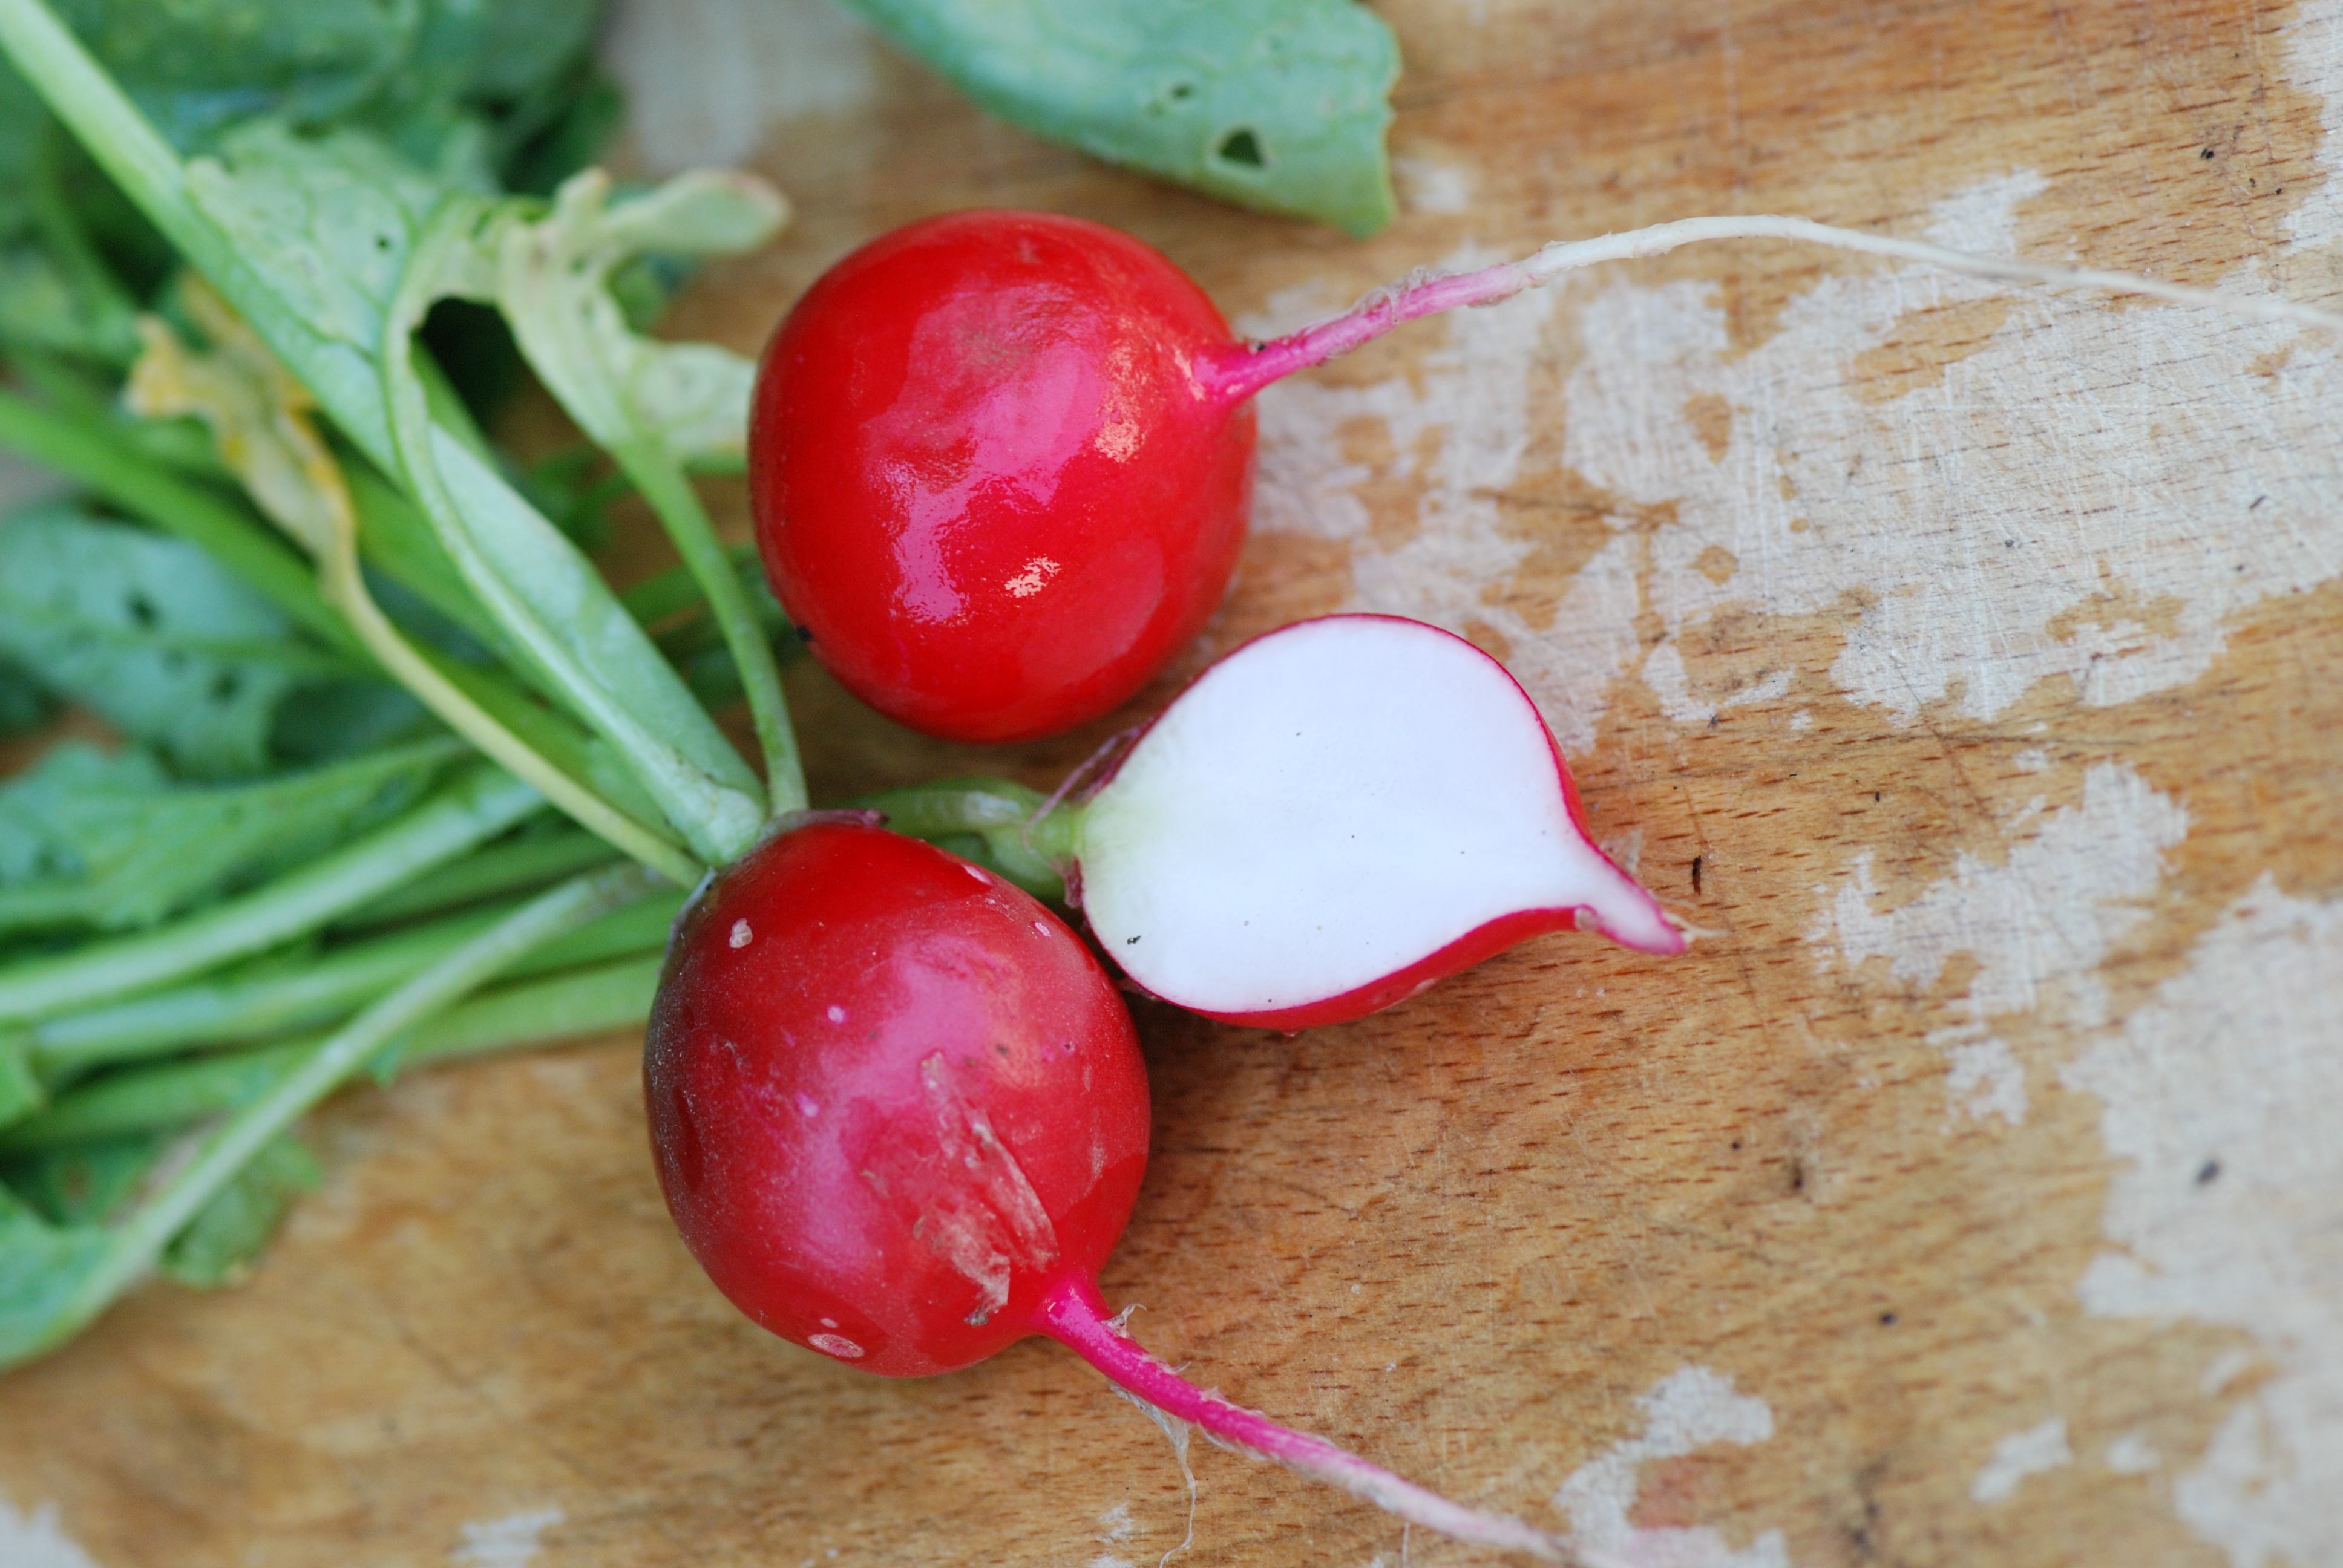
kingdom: Plantae
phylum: Tracheophyta
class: Magnoliopsida
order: Brassicales
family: Brassicaceae
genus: Raphanus
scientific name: Raphanus sativus
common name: Cultivated radish
